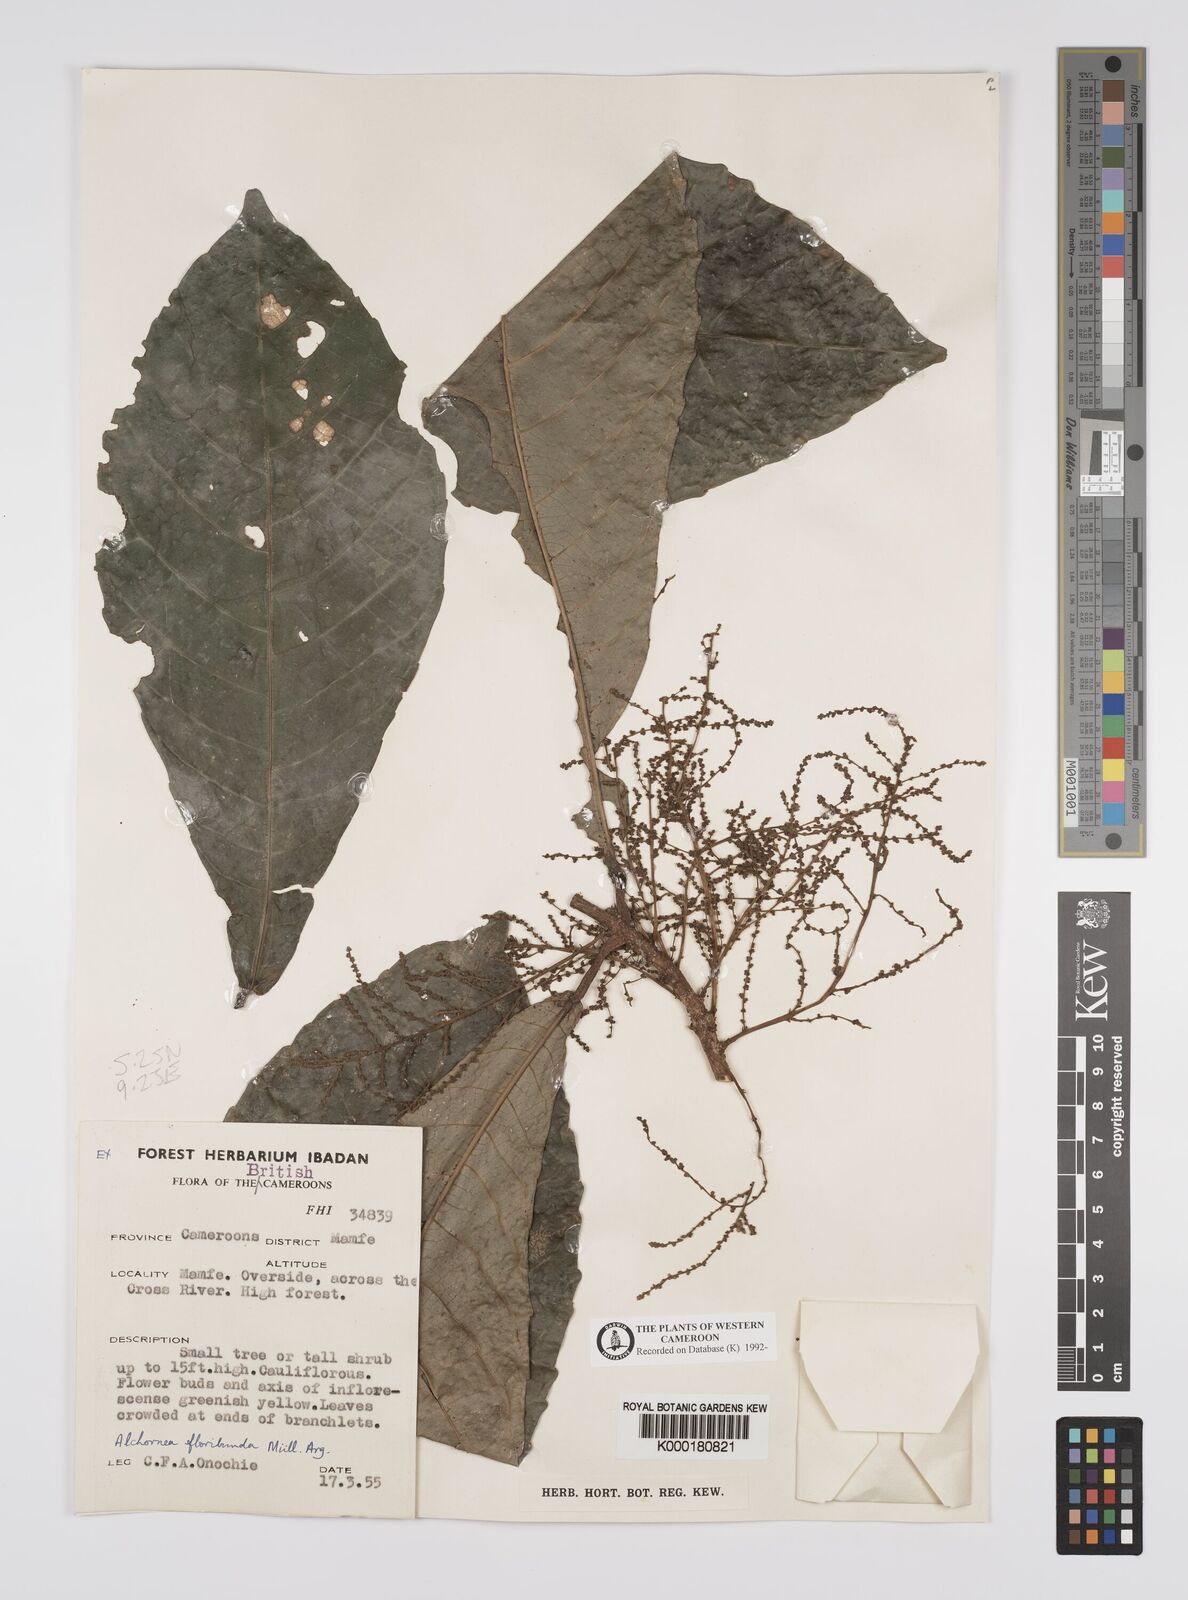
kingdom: Plantae
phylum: Tracheophyta
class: Magnoliopsida
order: Malpighiales
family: Euphorbiaceae
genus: Alchornea
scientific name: Alchornea
